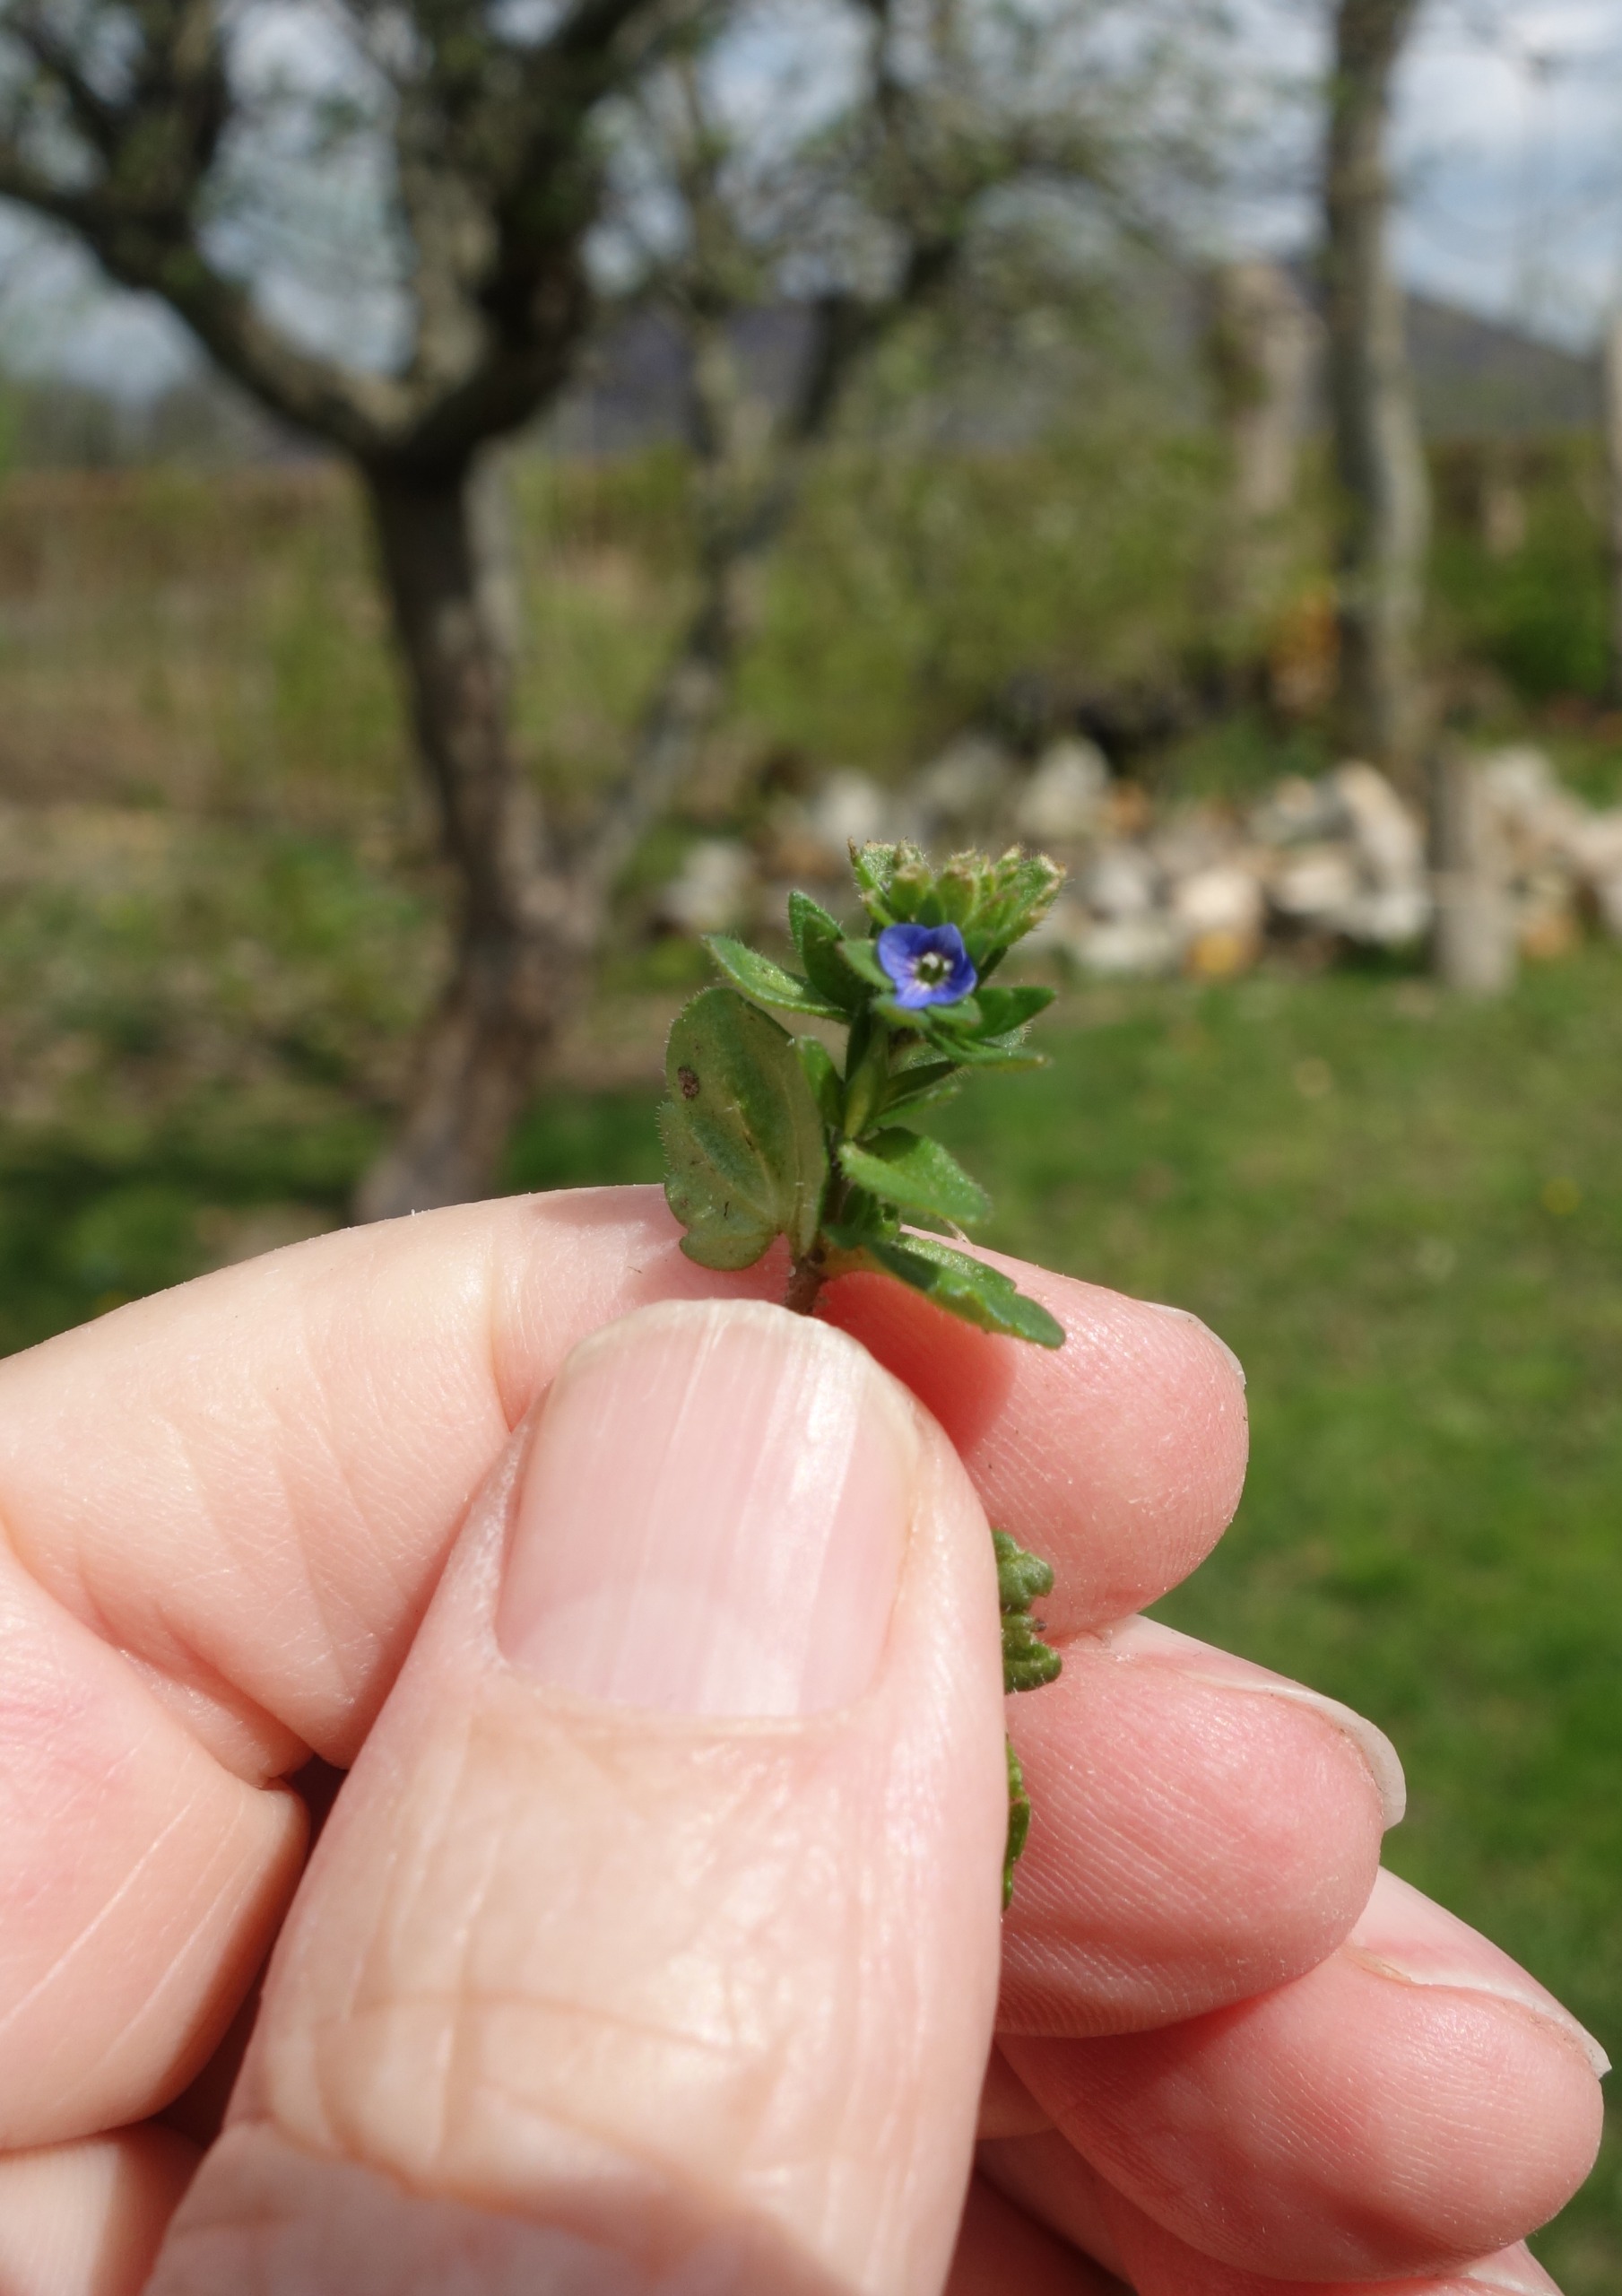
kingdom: Plantae
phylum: Tracheophyta
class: Magnoliopsida
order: Lamiales
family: Plantaginaceae
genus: Veronica
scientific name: Veronica arvensis
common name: Mark-ærenpris
